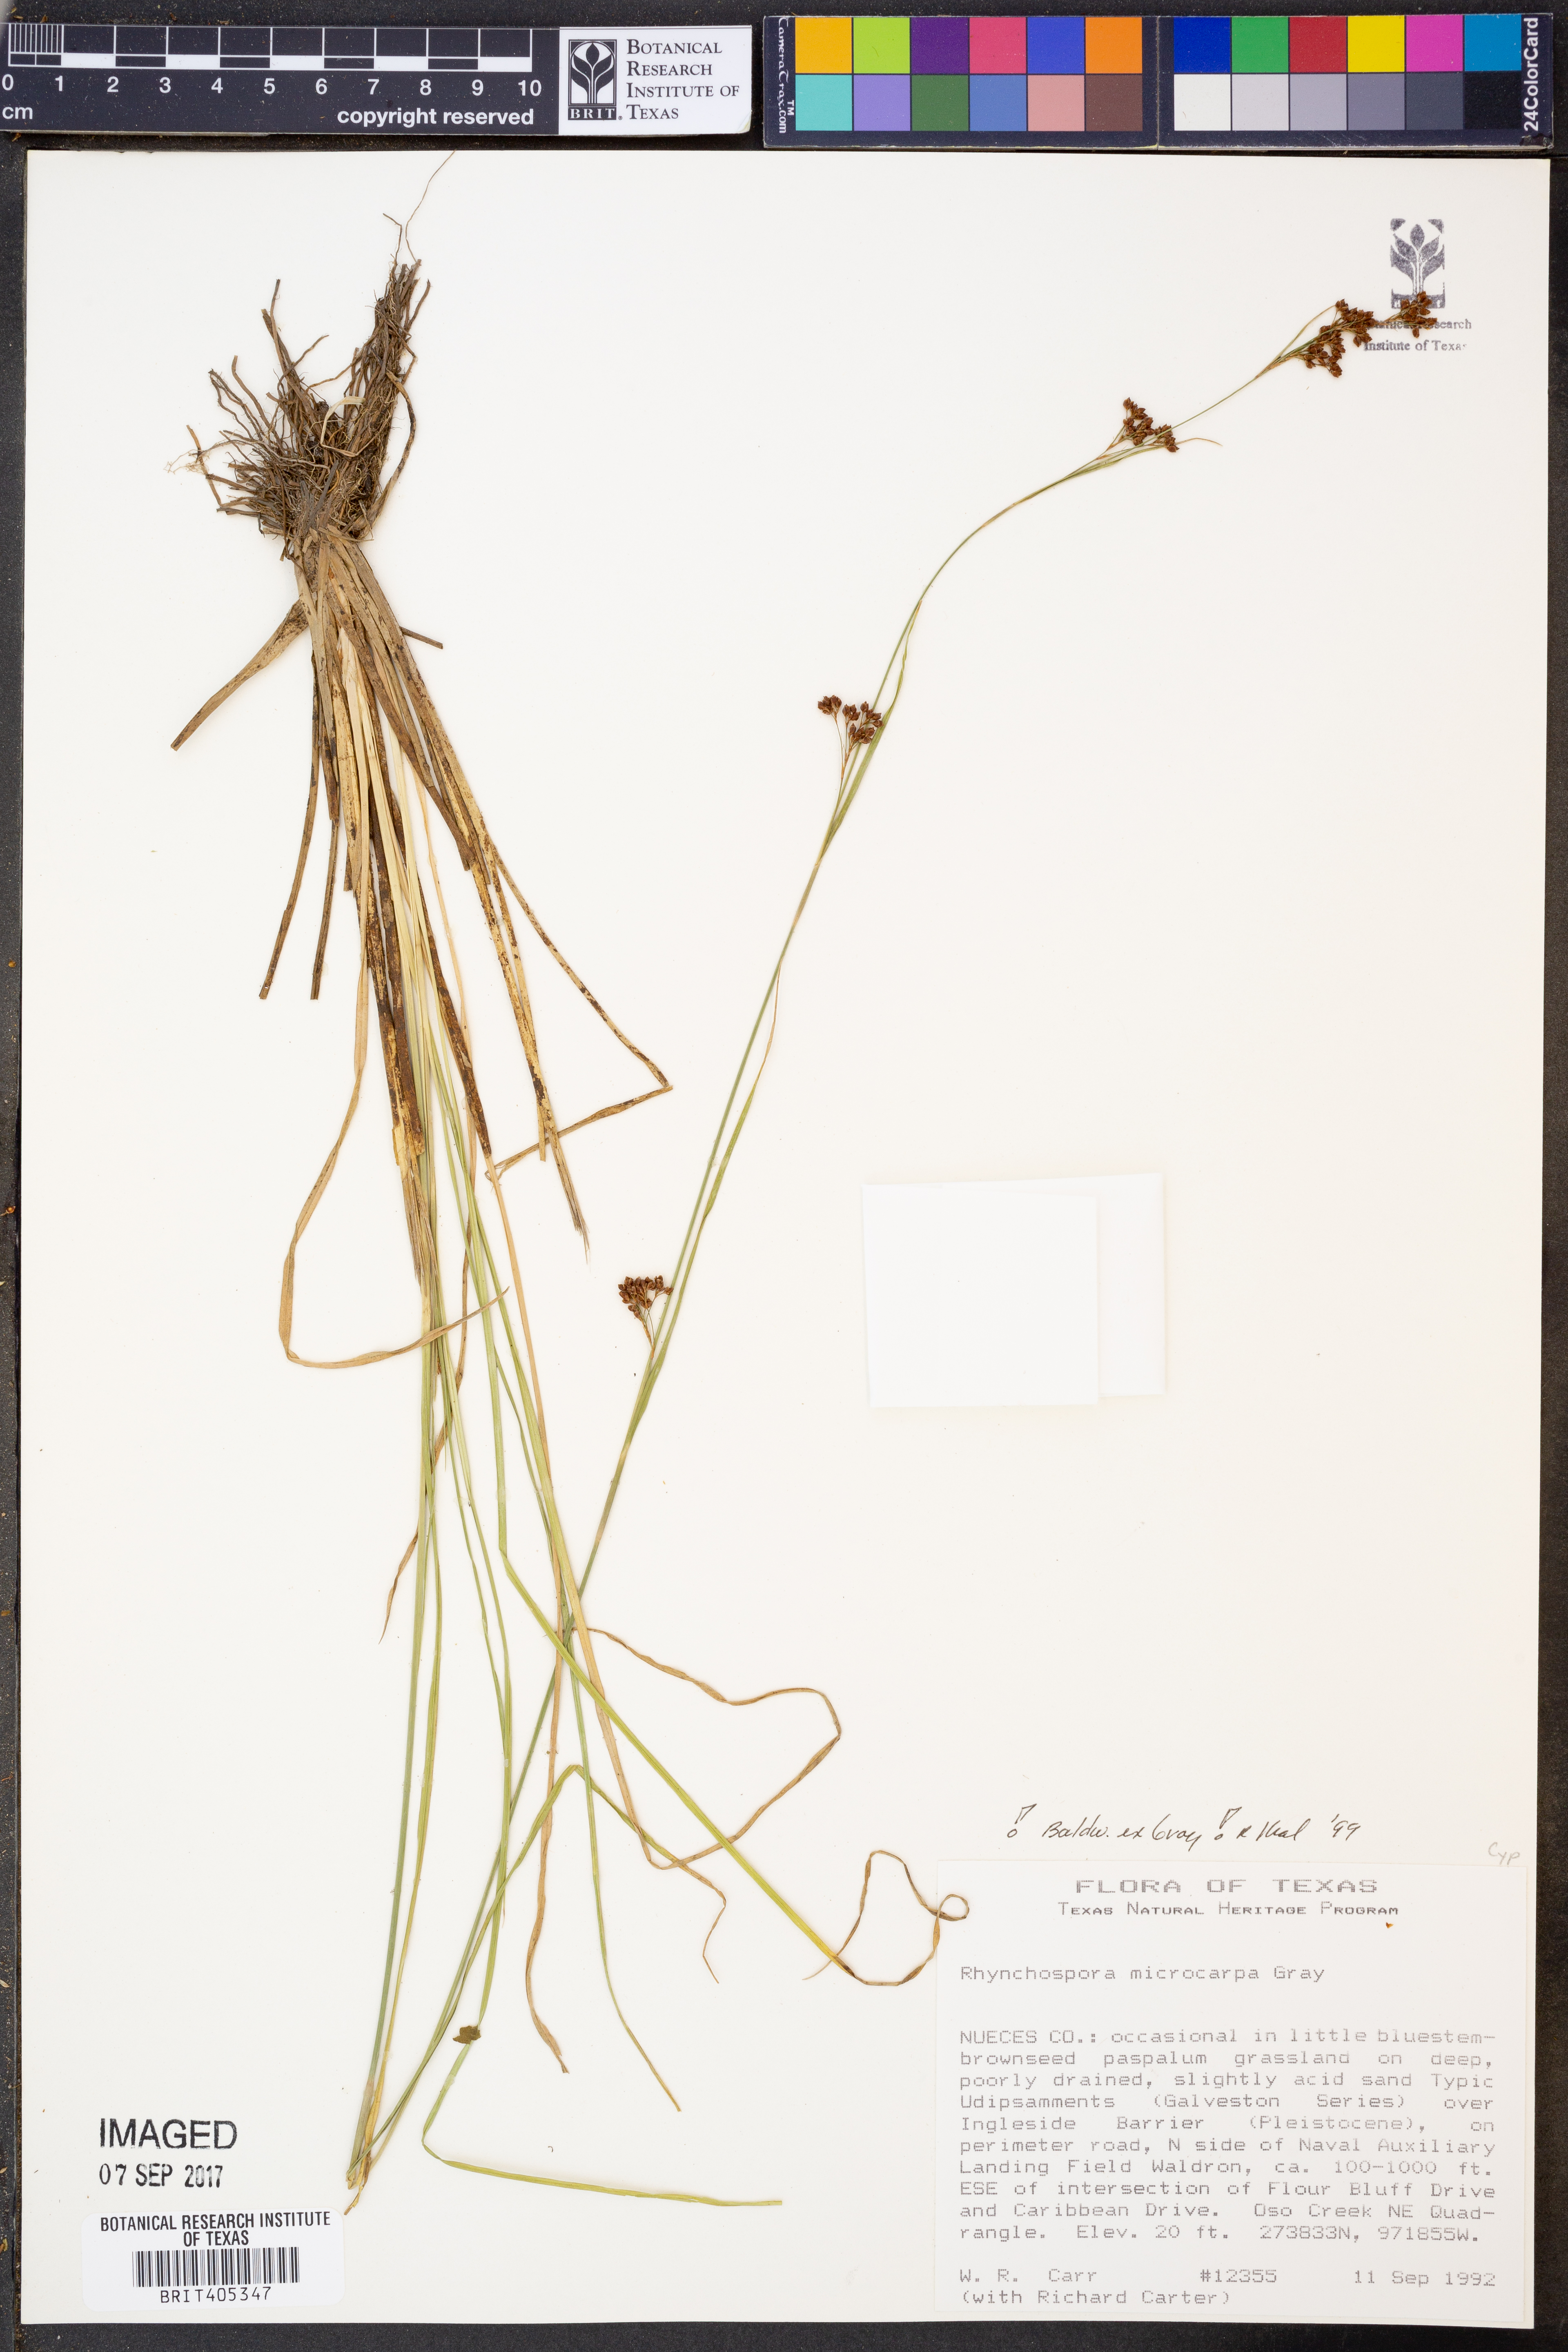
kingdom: Plantae
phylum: Tracheophyta
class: Liliopsida
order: Poales
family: Cyperaceae
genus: Rhynchospora
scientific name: Rhynchospora microcarpa
